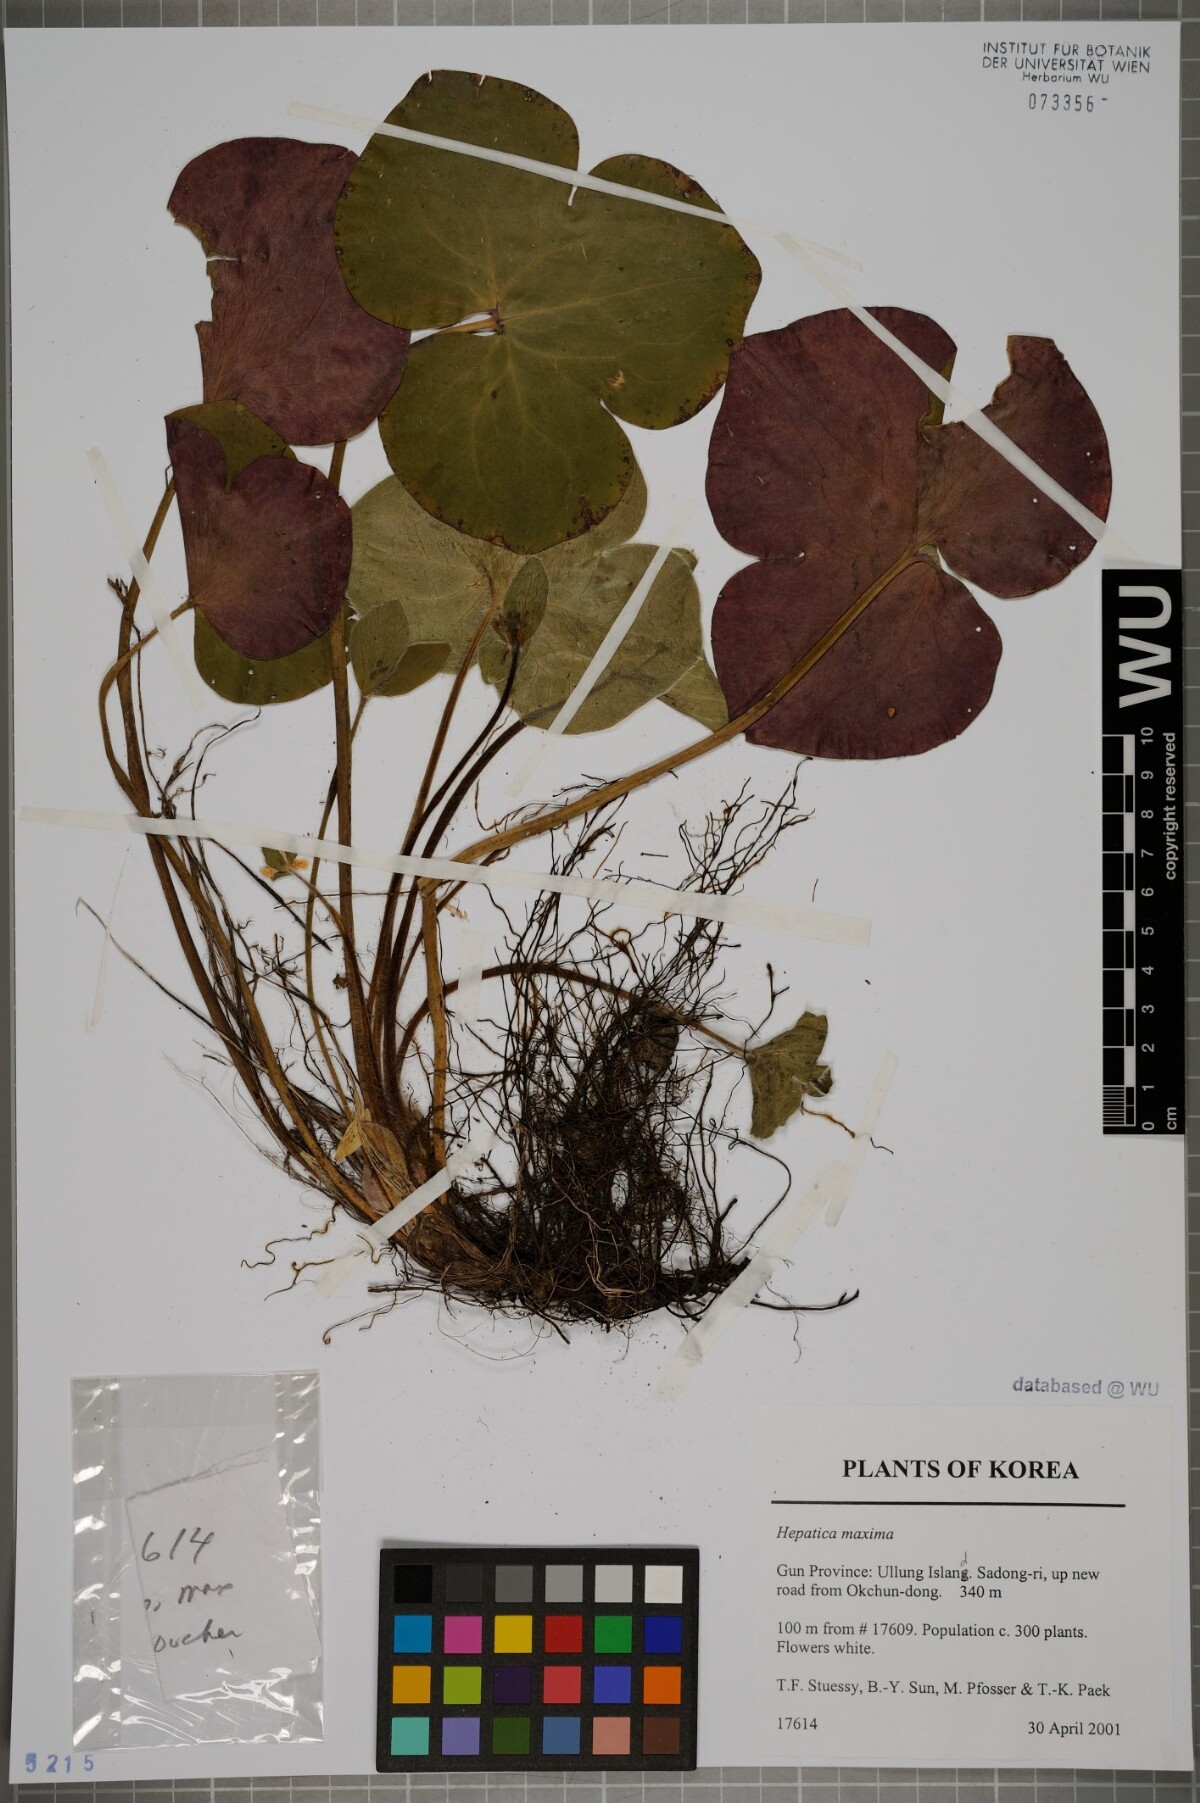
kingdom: Plantae
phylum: Tracheophyta
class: Magnoliopsida
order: Ranunculales
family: Ranunculaceae
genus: Hepatica
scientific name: Hepatica maxima
